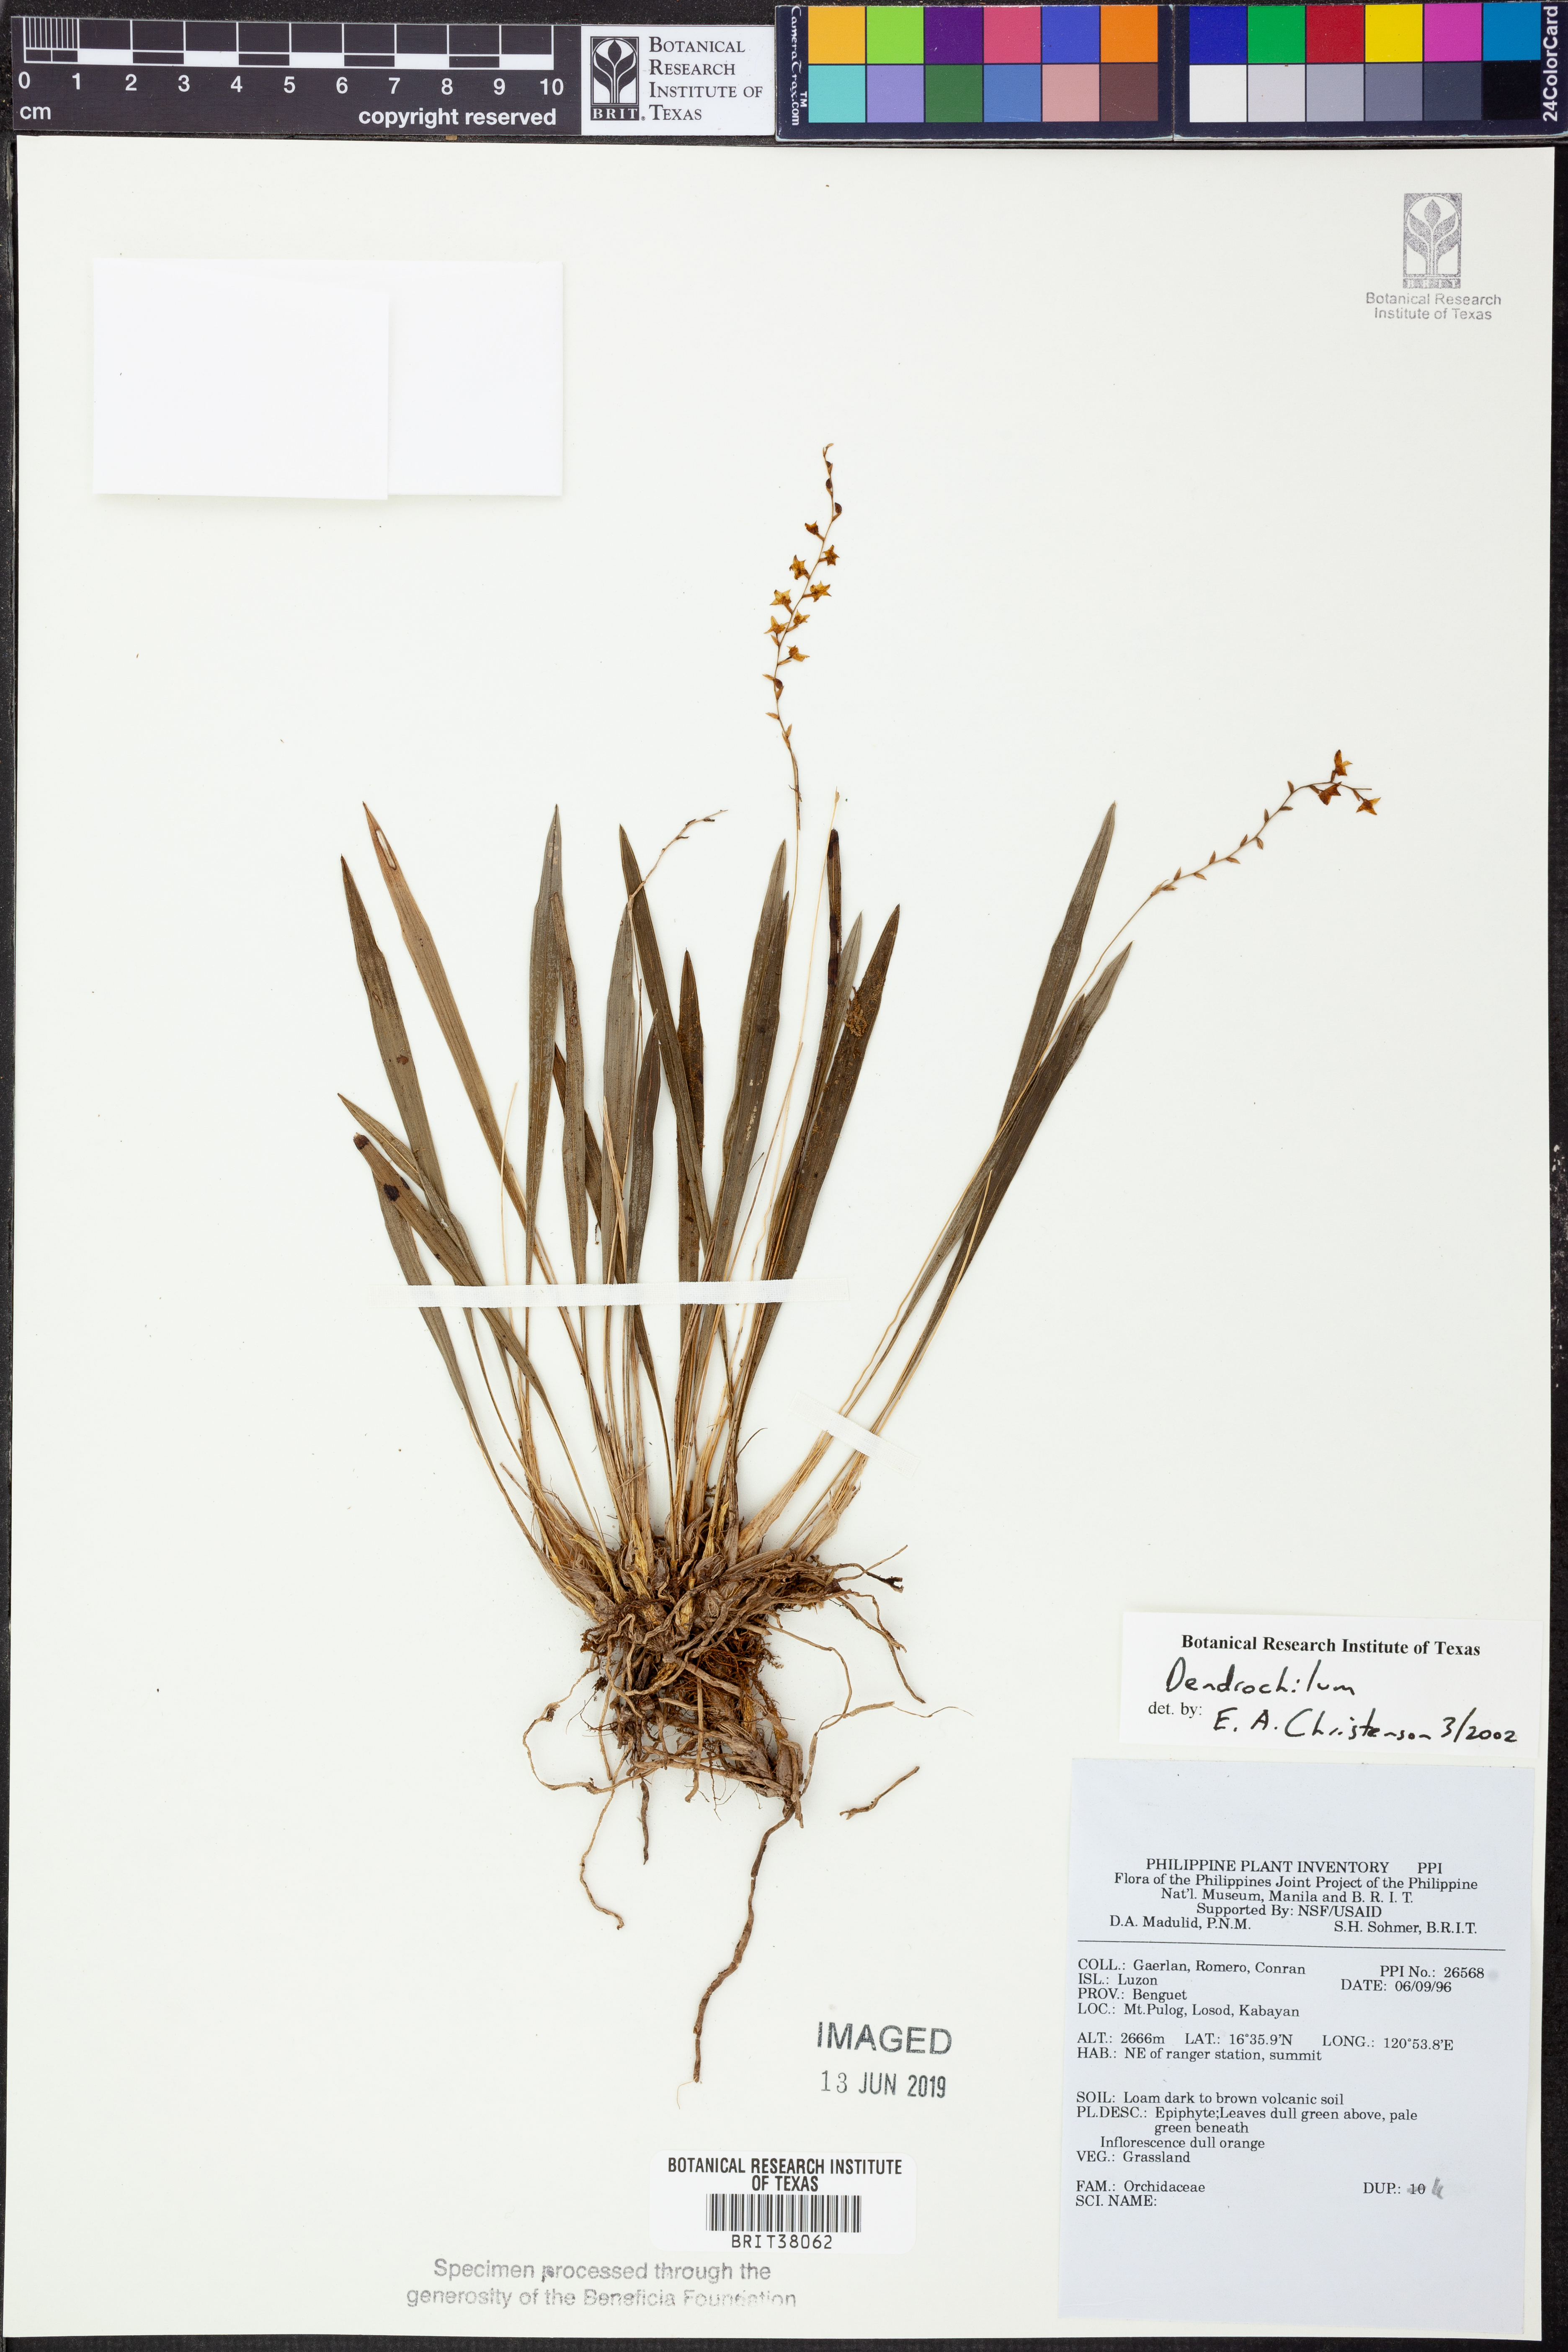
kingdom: Plantae
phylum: Tracheophyta
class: Liliopsida
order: Asparagales
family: Orchidaceae
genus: Coelogyne
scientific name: Coelogyne
